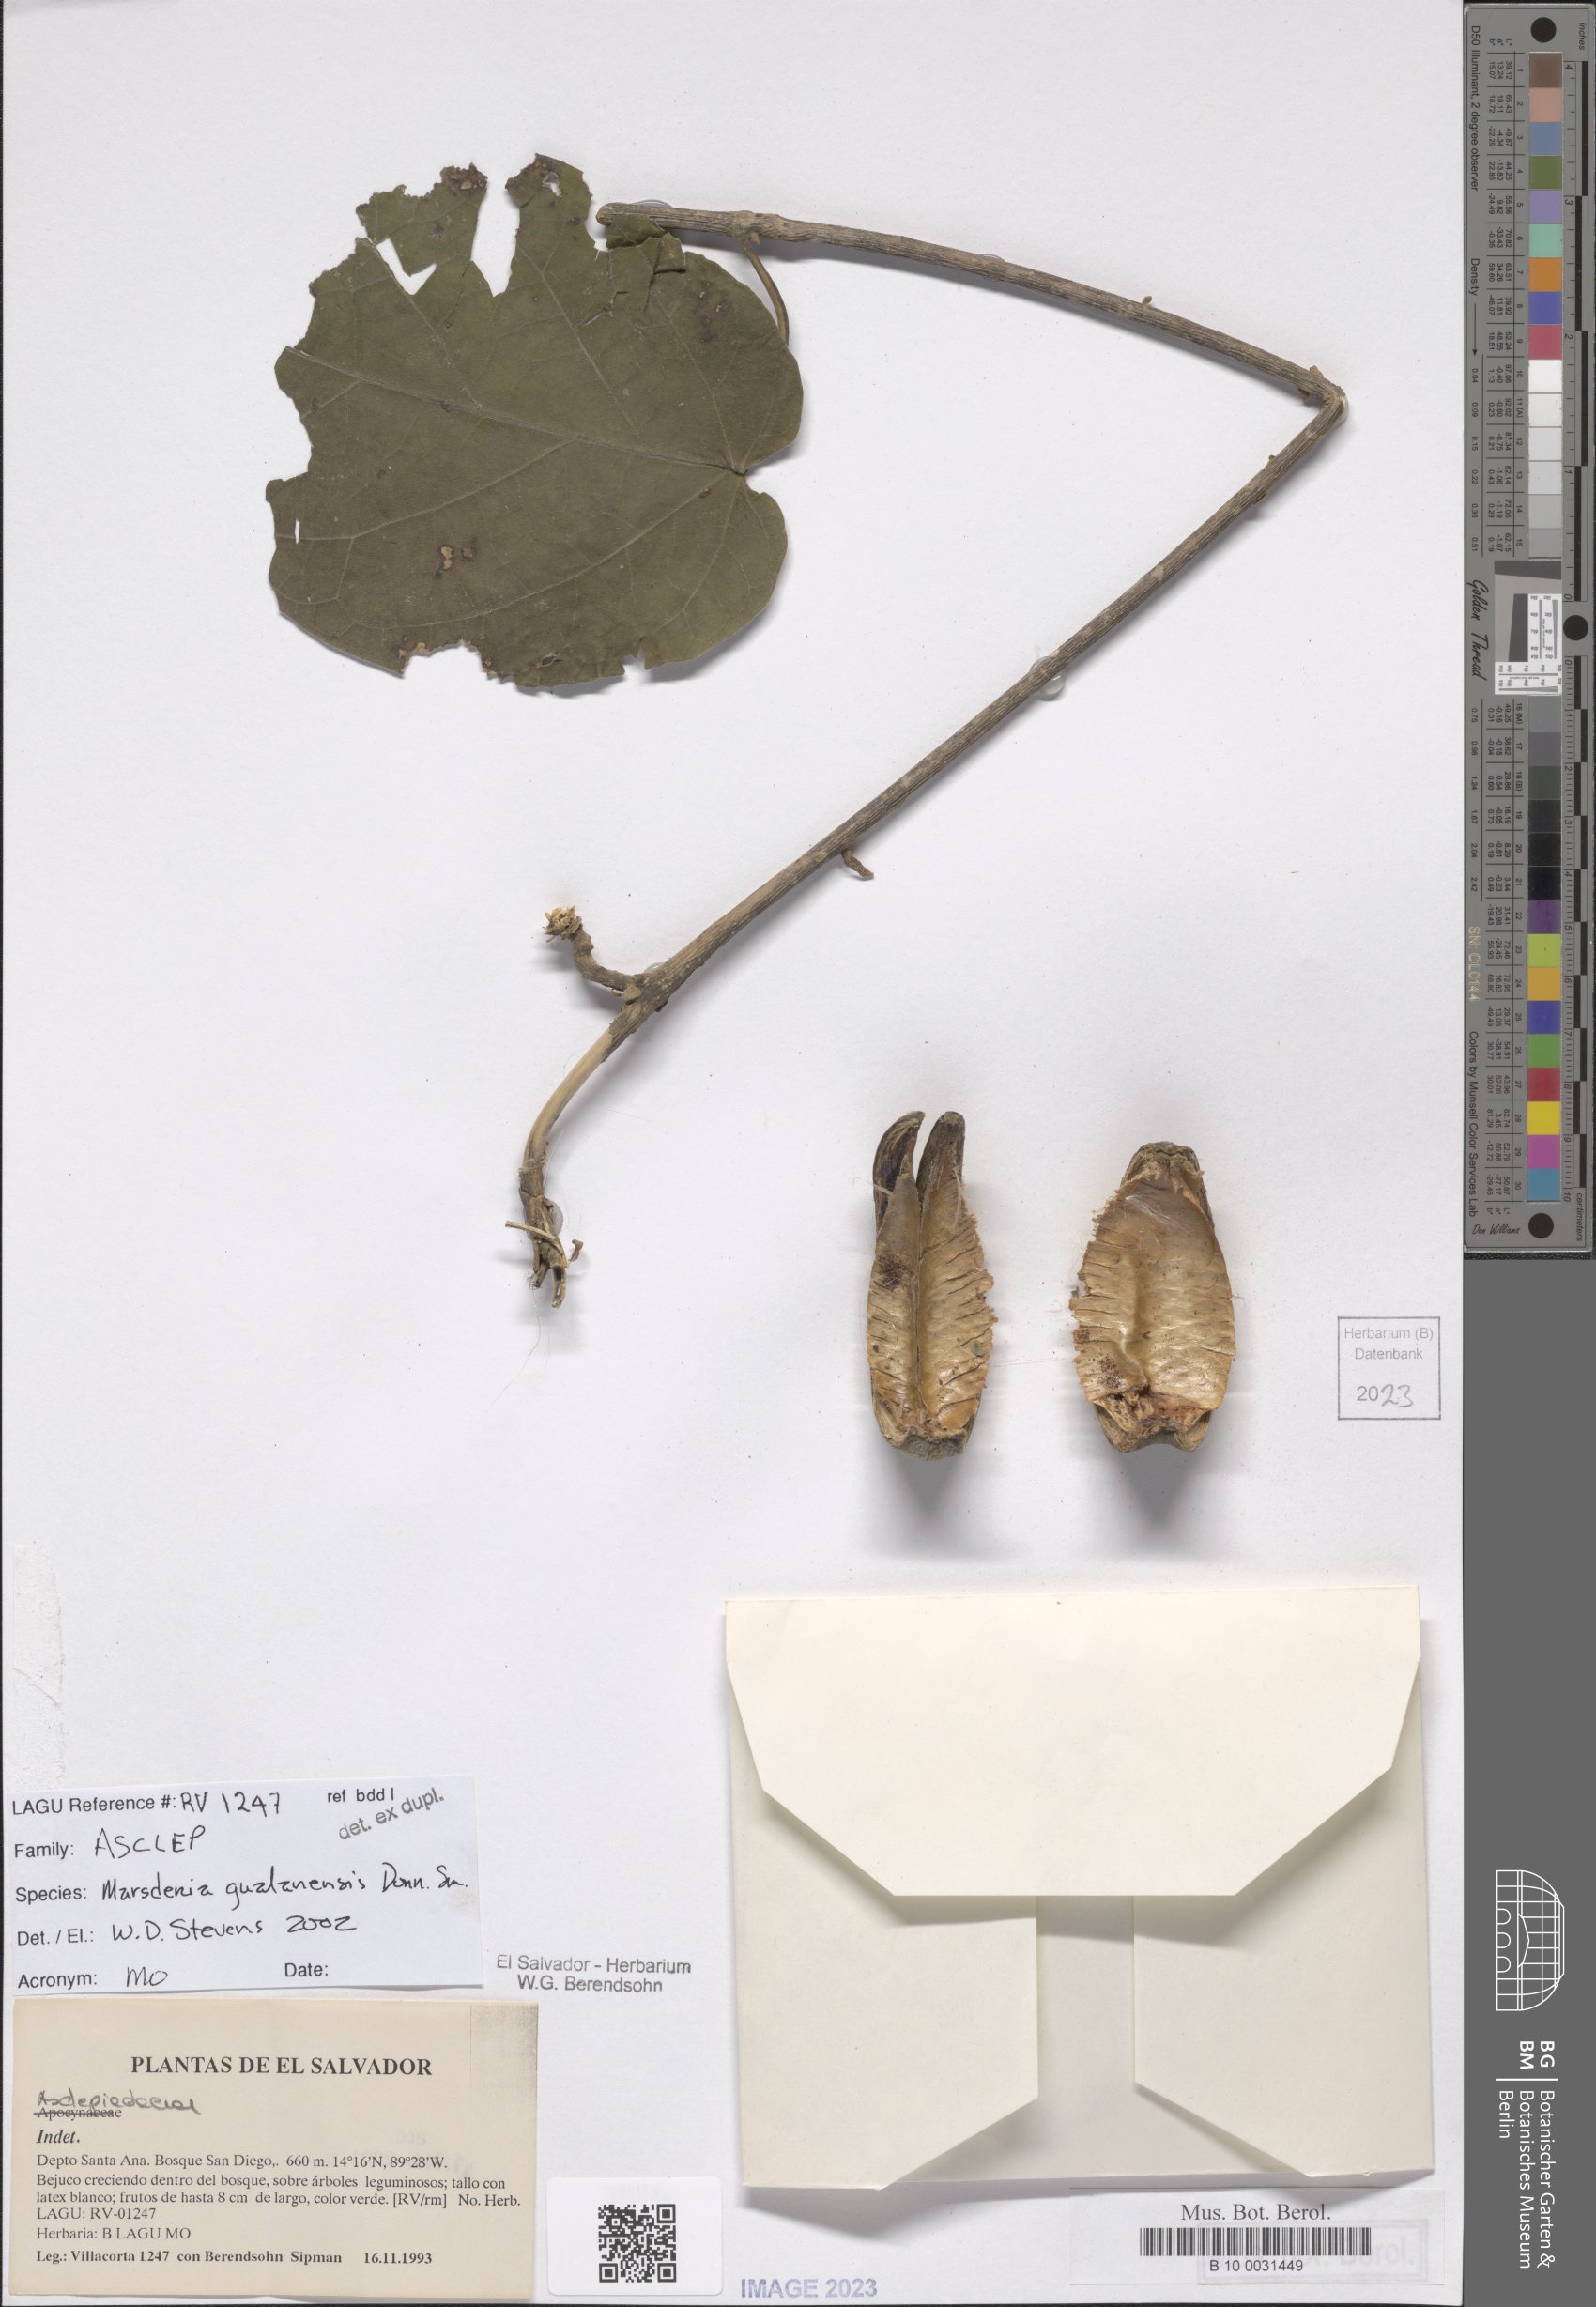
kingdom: Plantae
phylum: Tracheophyta
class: Magnoliopsida
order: Gentianales
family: Apocynaceae
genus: Ruehssia
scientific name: Ruehssia gualanensis
